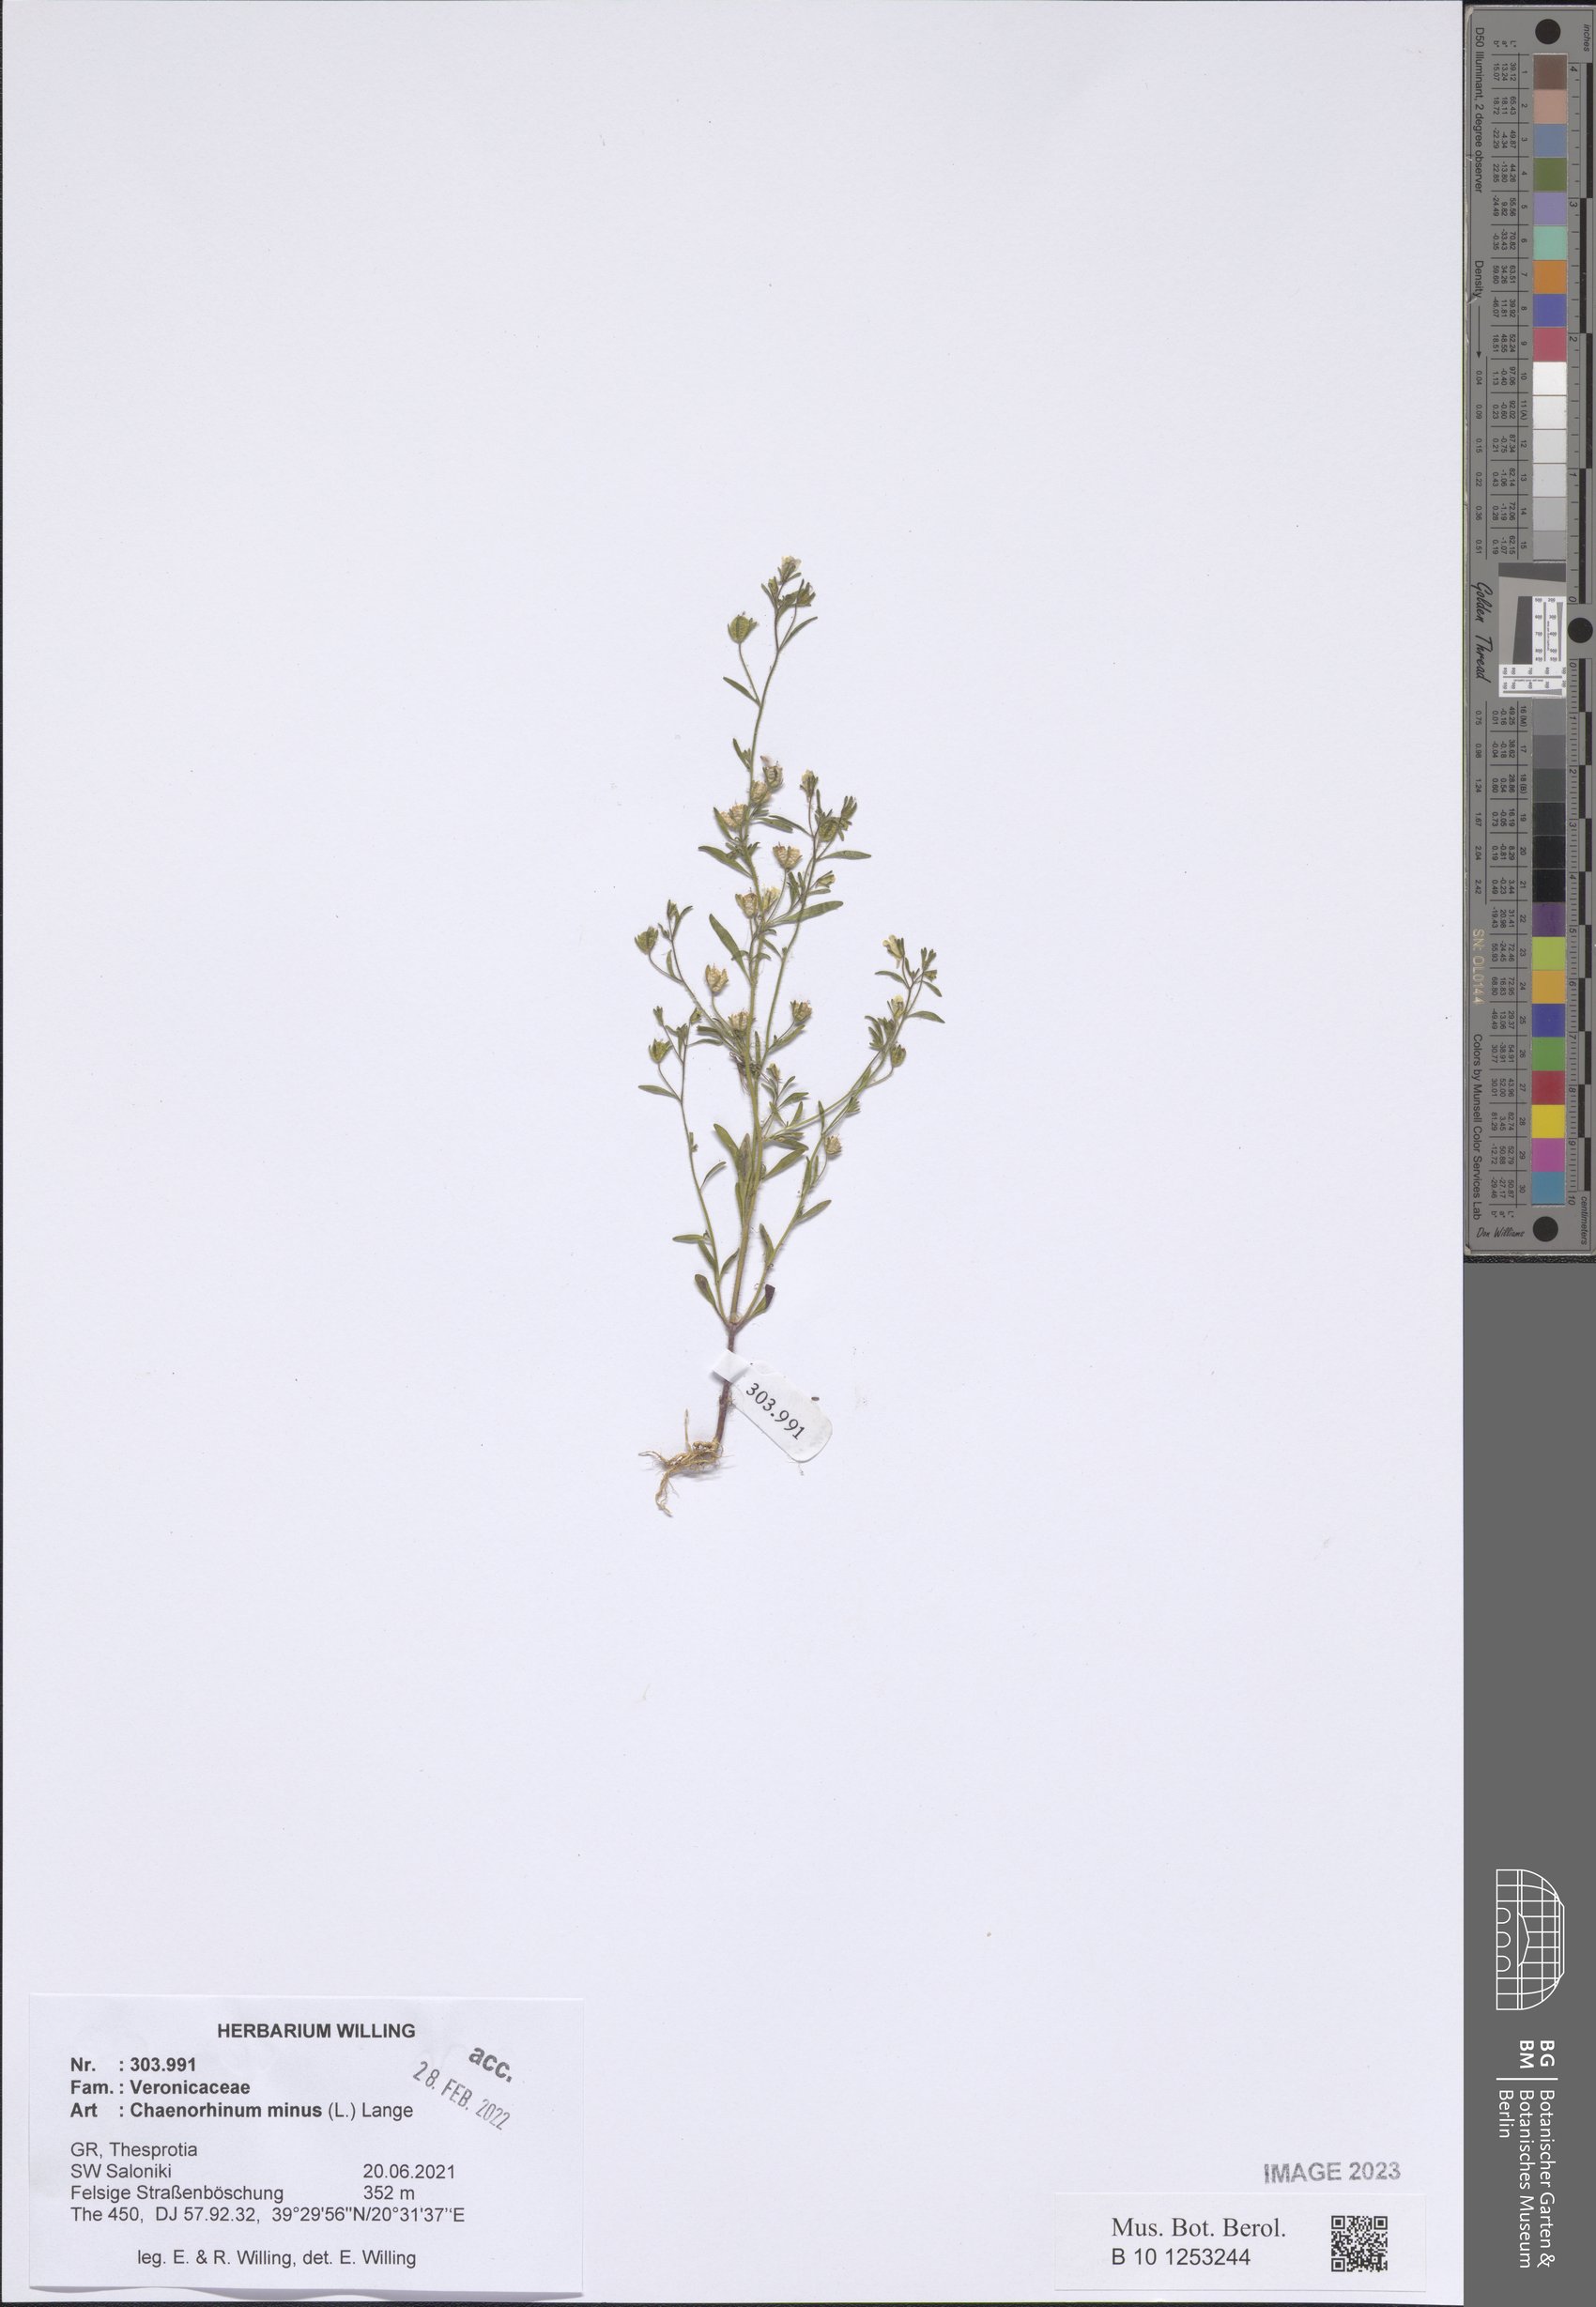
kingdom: Plantae
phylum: Tracheophyta
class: Magnoliopsida
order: Lamiales
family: Plantaginaceae
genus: Chaenorhinum
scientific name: Chaenorhinum minus
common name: Dwarf snapdragon
